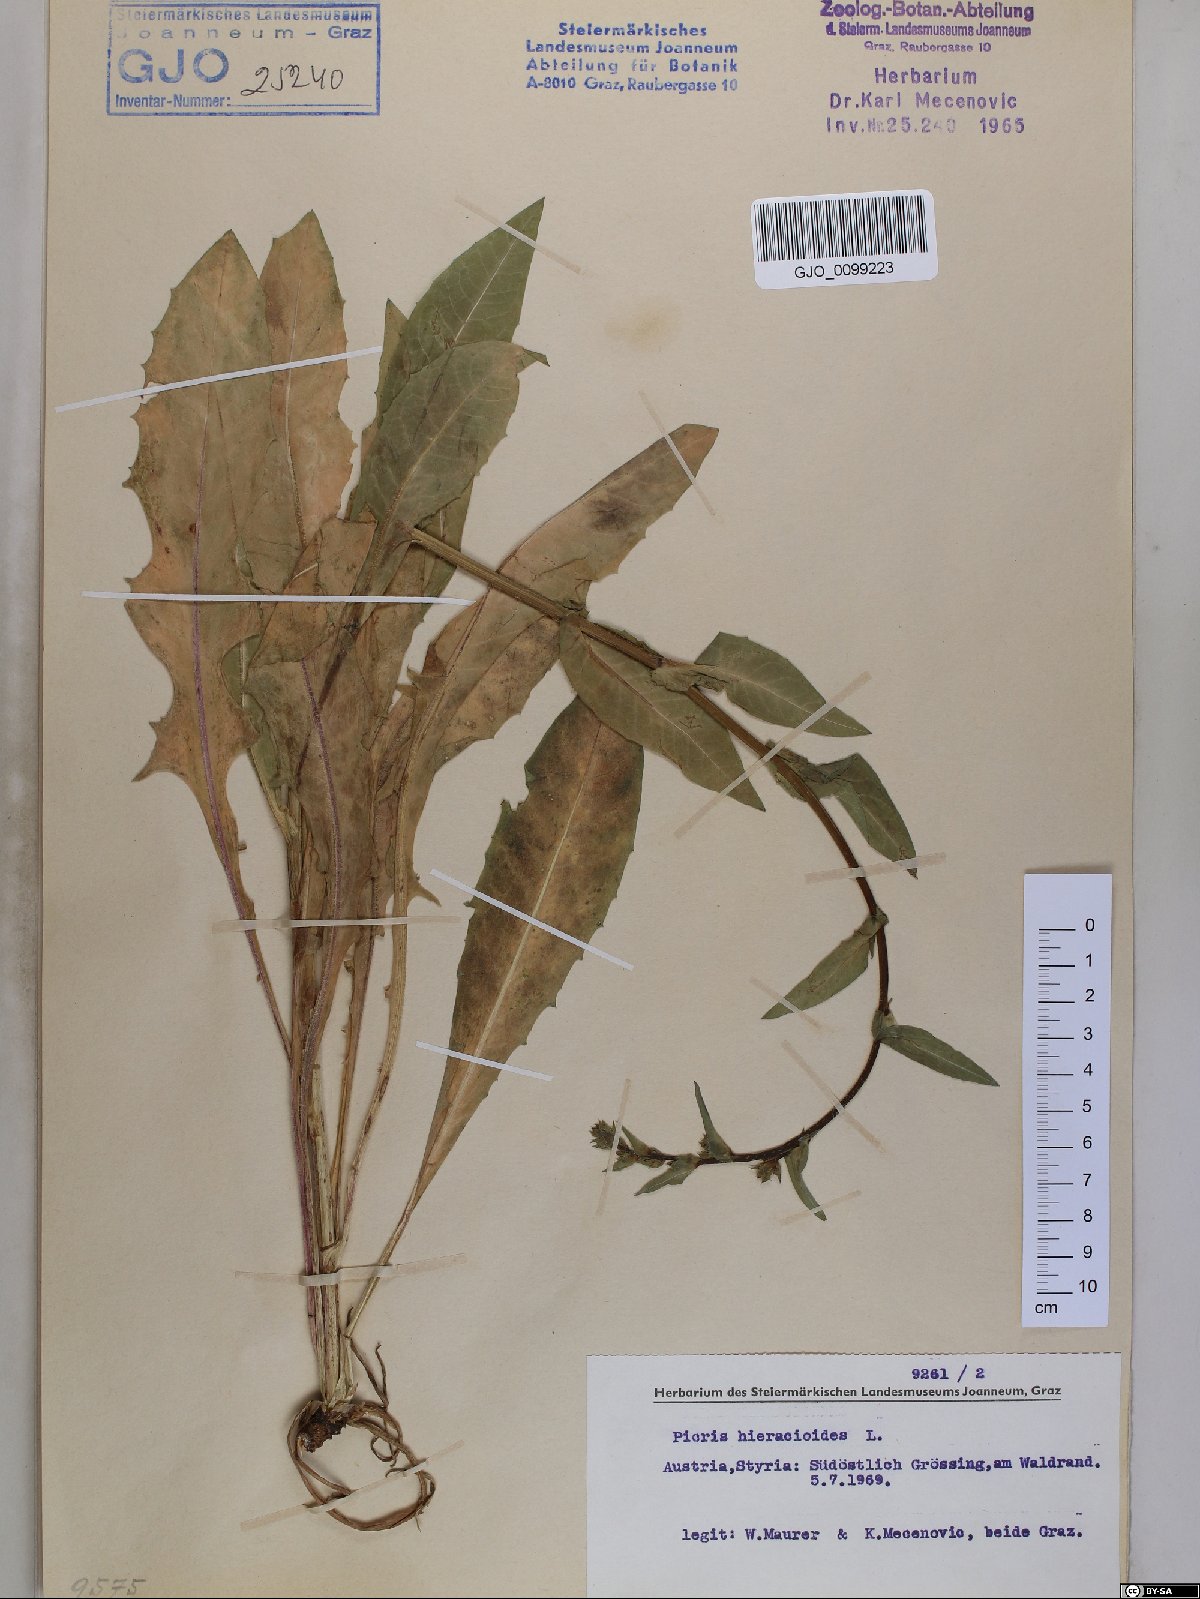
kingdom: Plantae
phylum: Tracheophyta
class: Magnoliopsida
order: Asterales
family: Asteraceae
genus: Picris
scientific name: Picris hieracioides
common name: Hawkweed oxtongue
